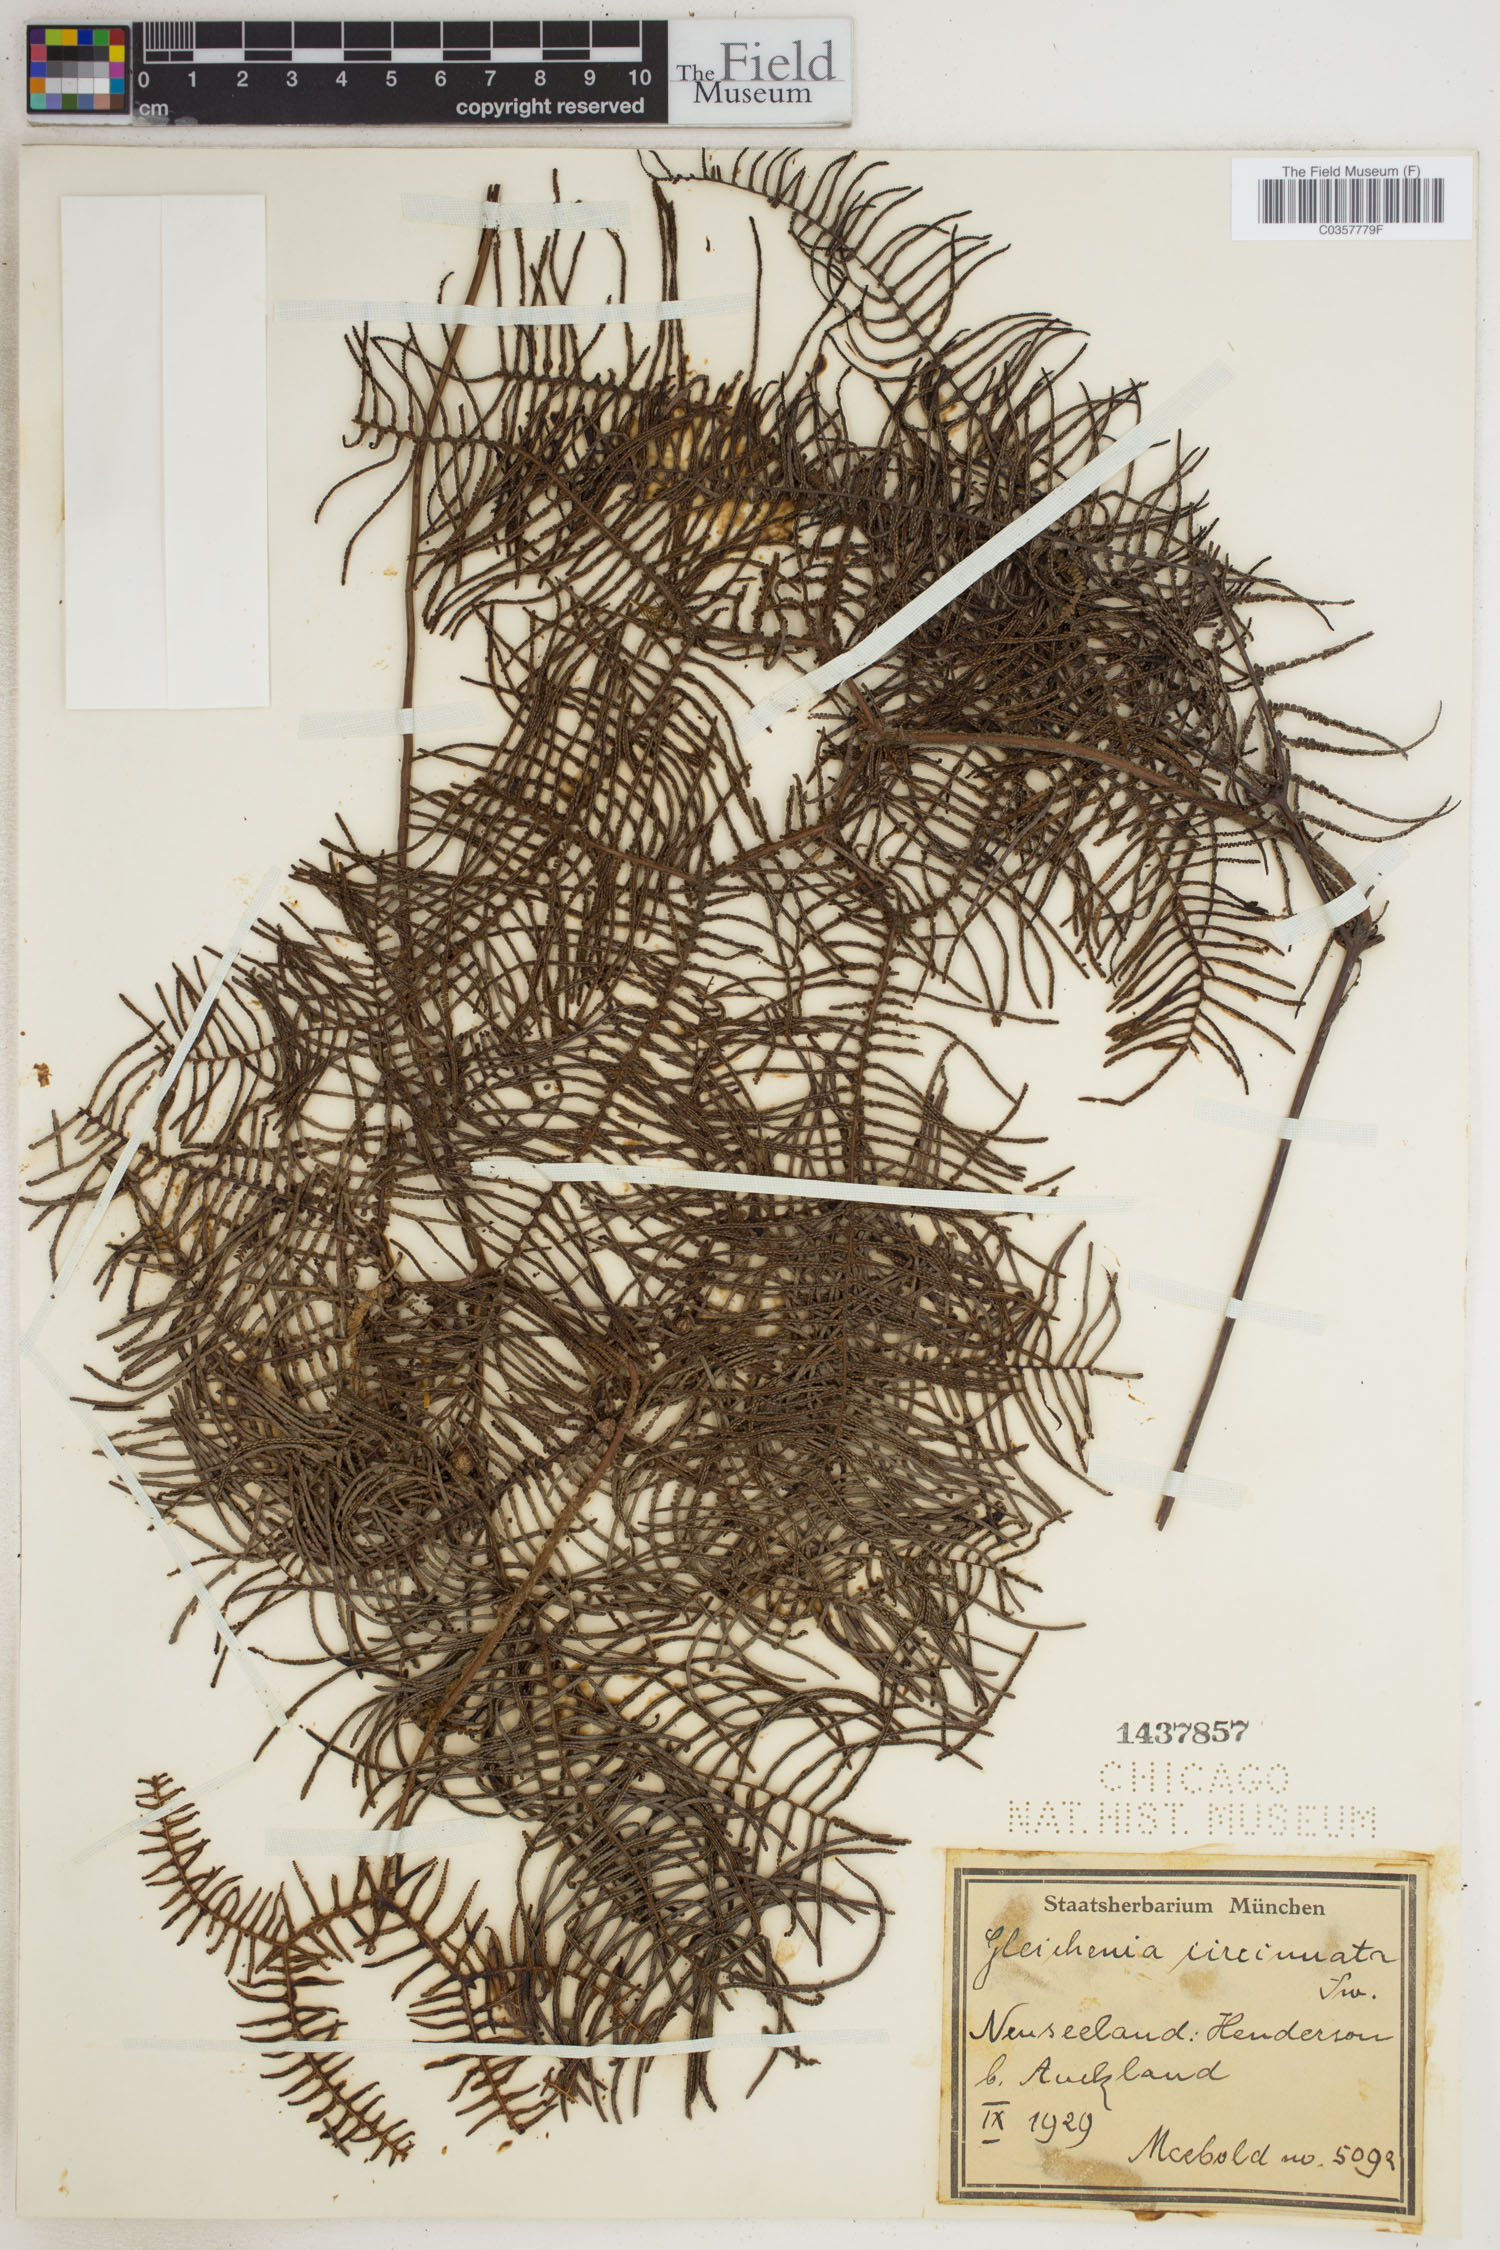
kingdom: Plantae
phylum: Tracheophyta
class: Polypodiopsida
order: Gleicheniales
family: Gleicheniaceae
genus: Gleichenia
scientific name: Gleichenia circinnata
